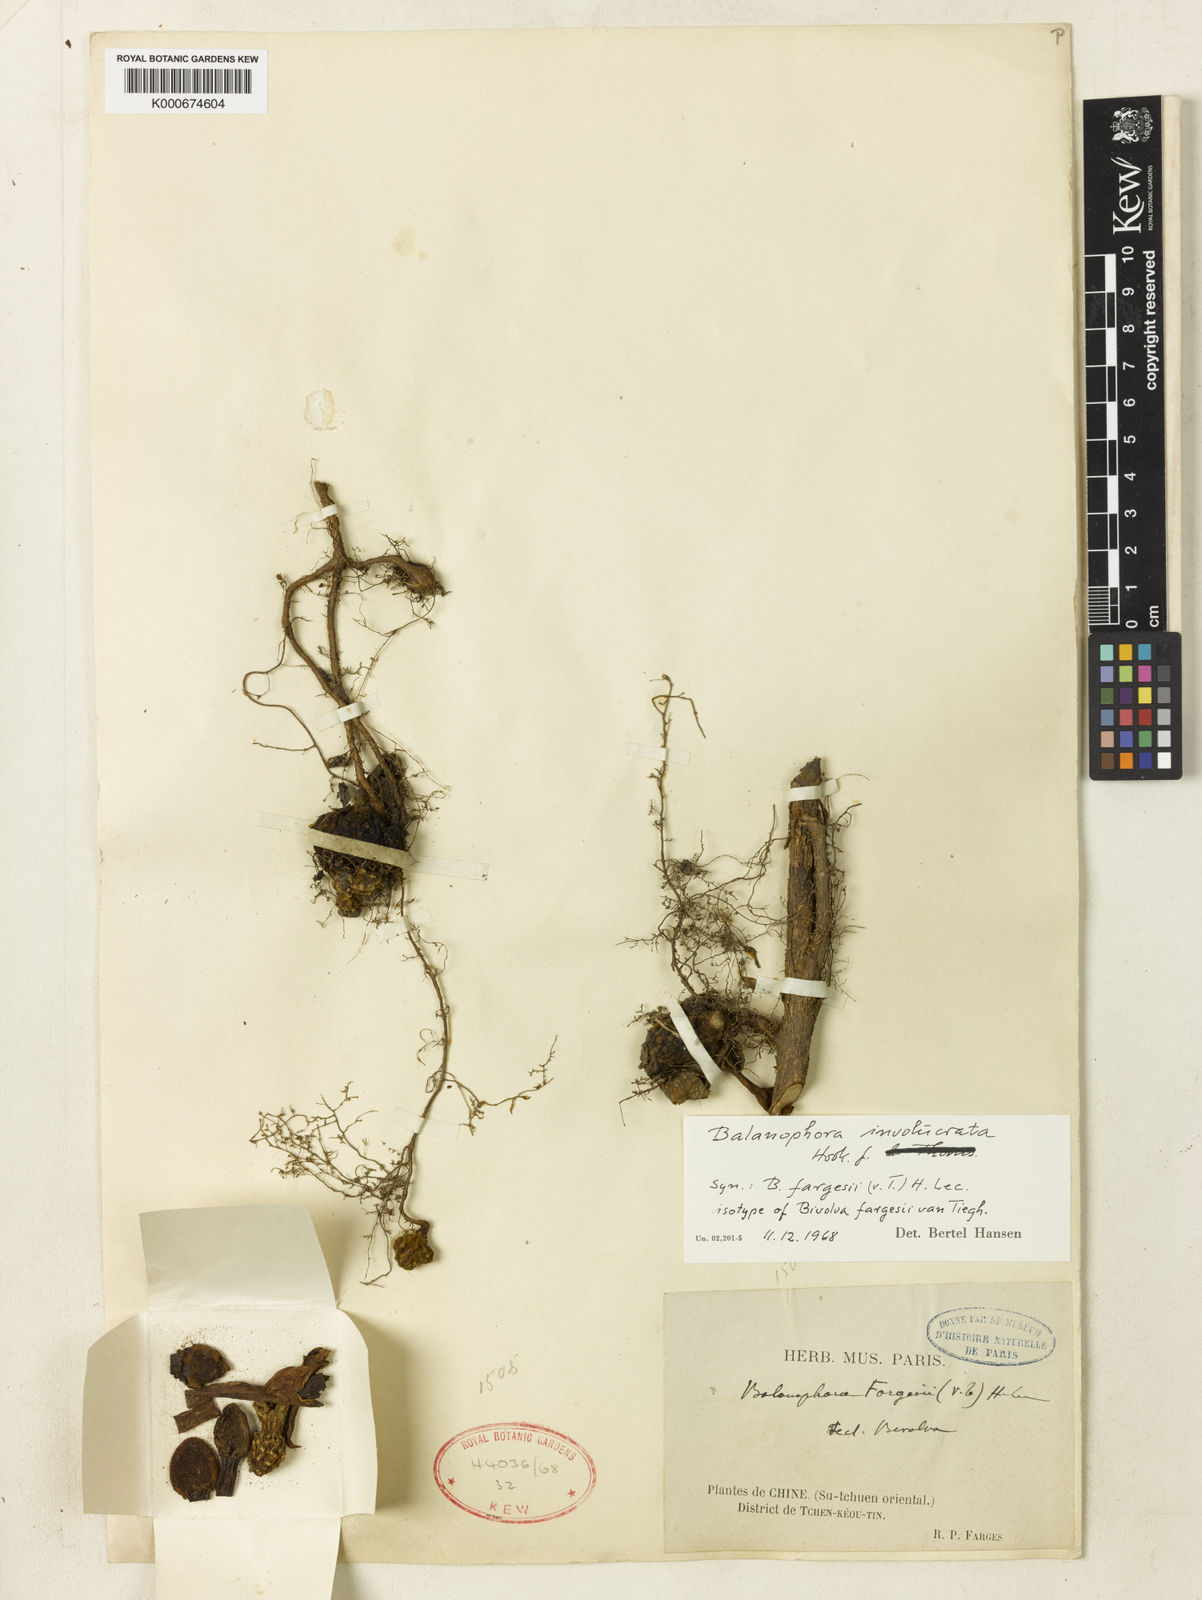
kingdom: Plantae
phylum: Tracheophyta
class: Magnoliopsida
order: Santalales
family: Balanophoraceae
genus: Balanophora
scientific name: Balanophora fargesii
